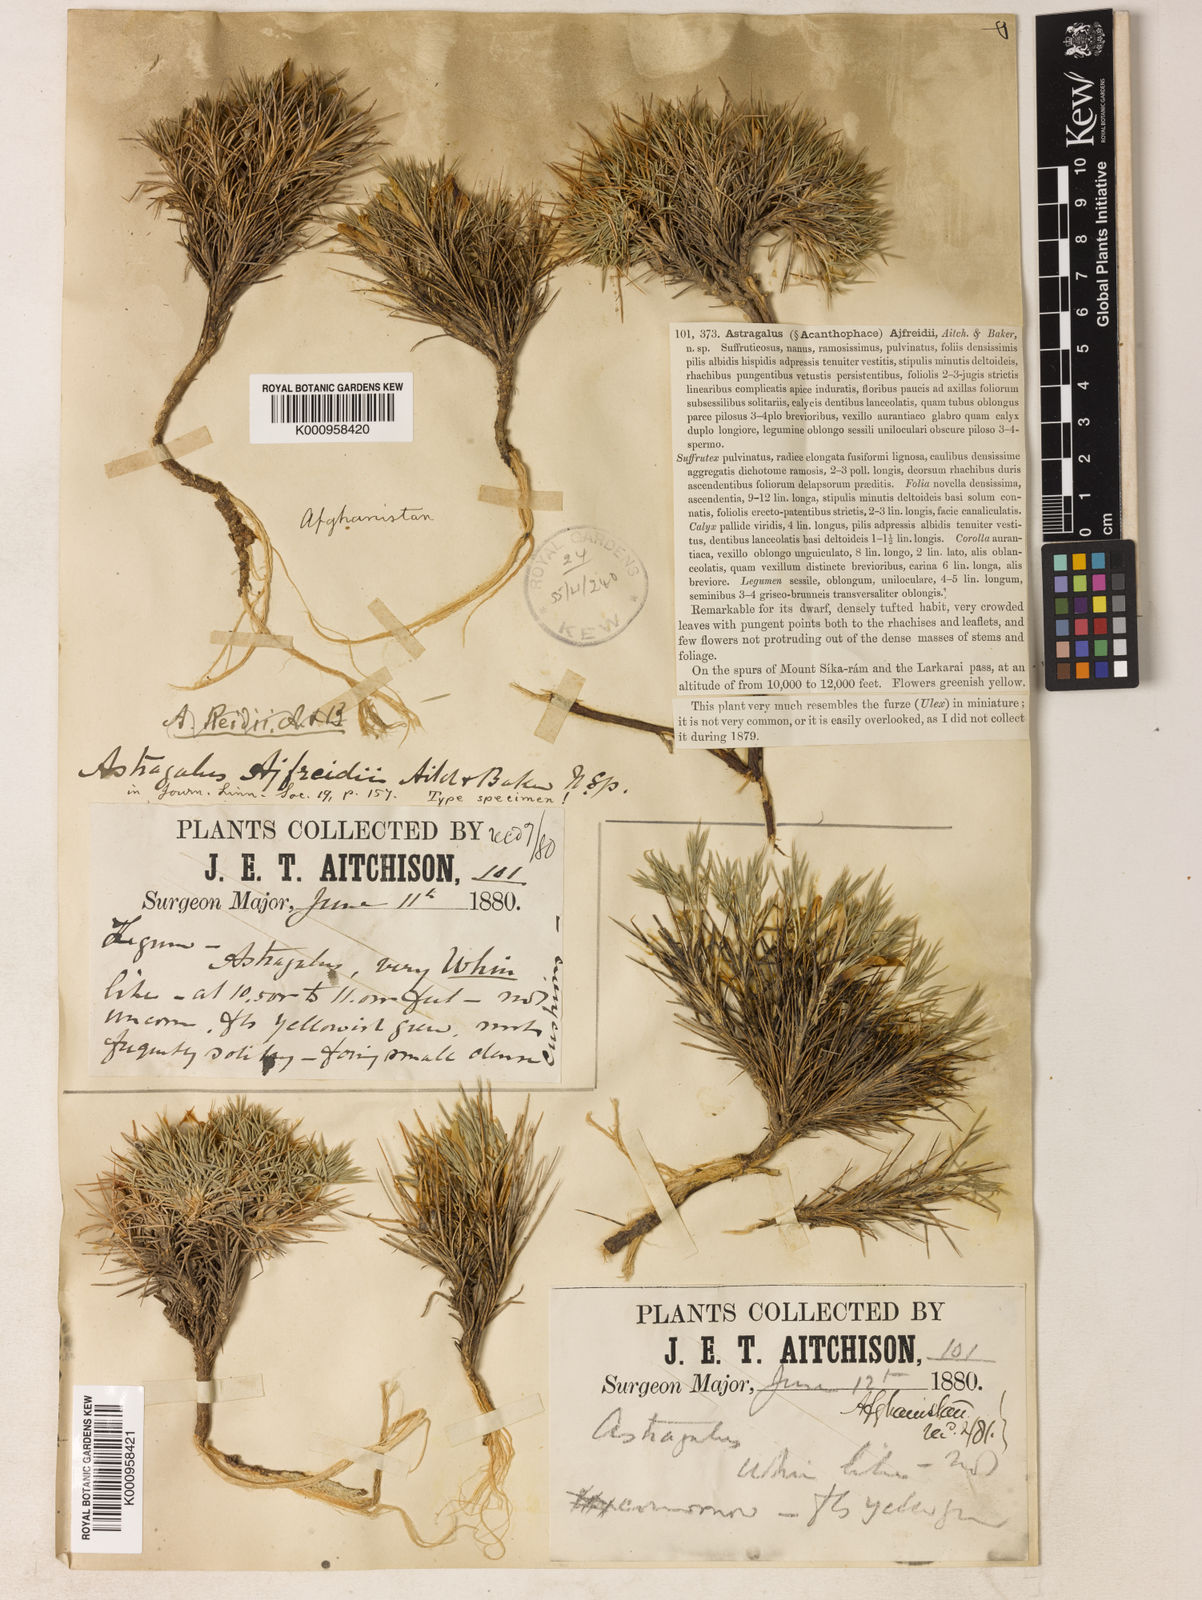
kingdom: Plantae
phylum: Tracheophyta
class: Magnoliopsida
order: Fabales
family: Fabaceae
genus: Astragalus
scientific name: Astragalus ajfreidii
